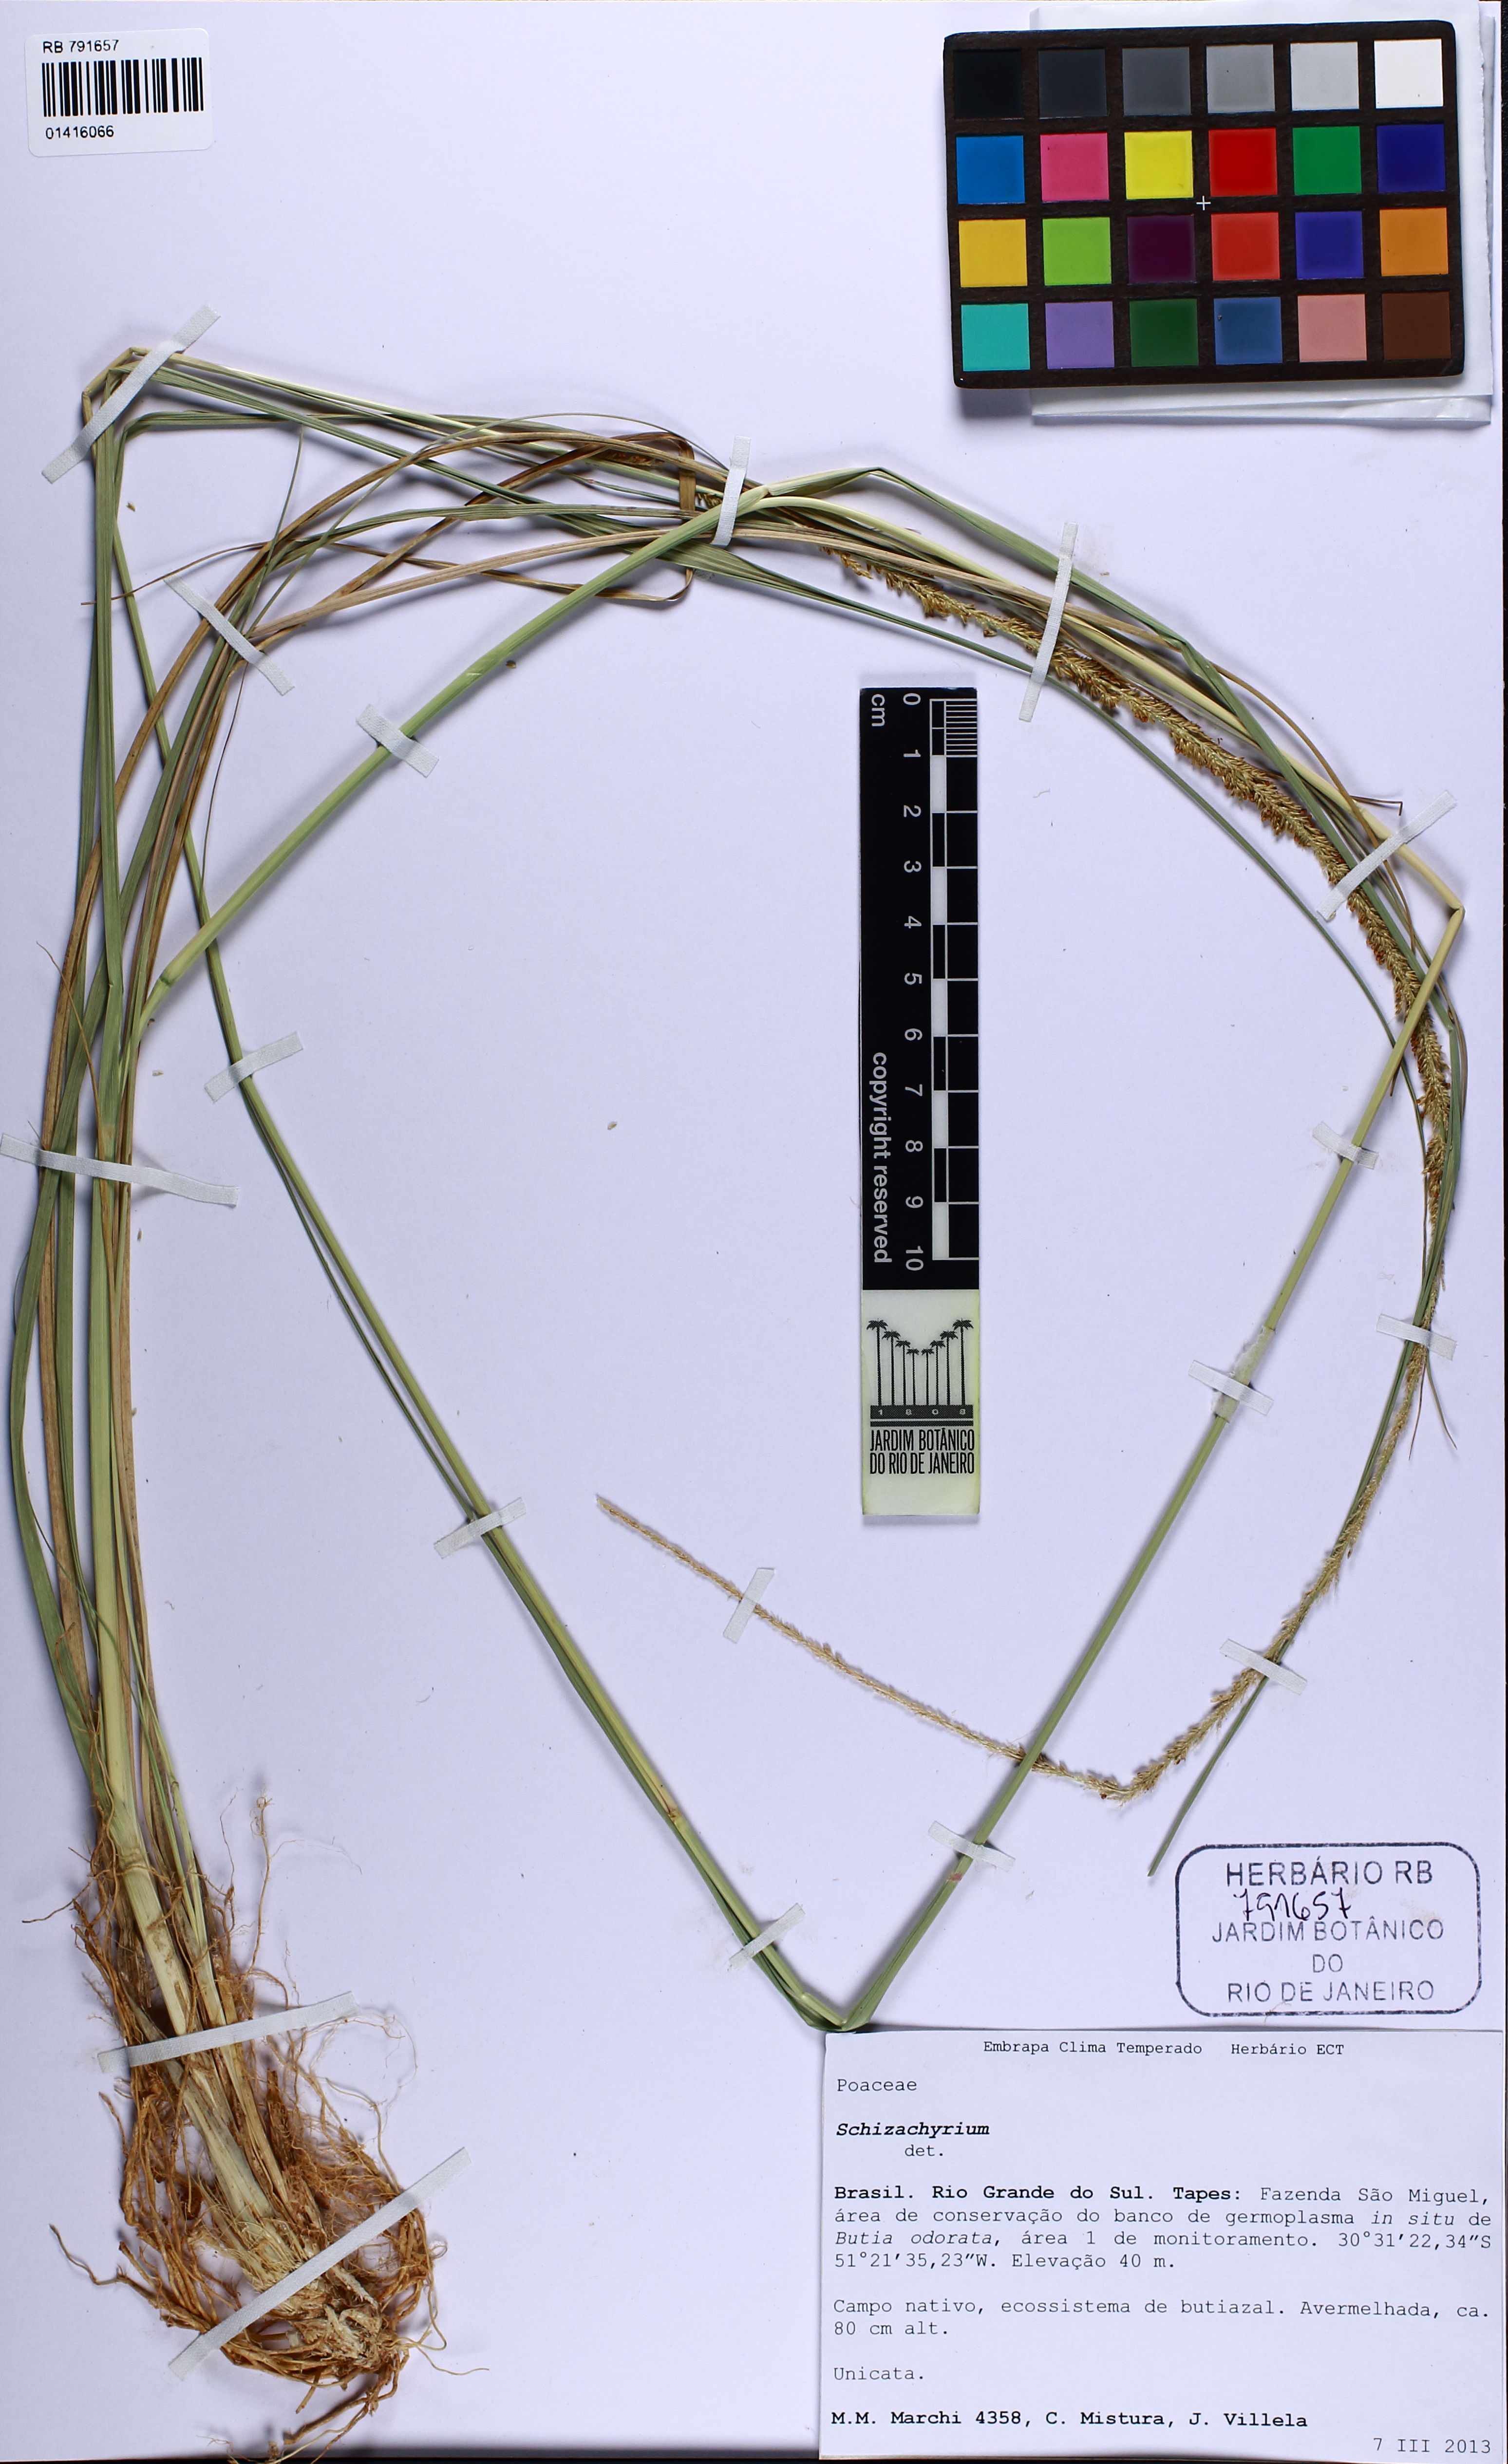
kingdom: Plantae
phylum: Tracheophyta
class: Liliopsida
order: Poales
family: Poaceae
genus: Schizachyrium
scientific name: Schizachyrium
